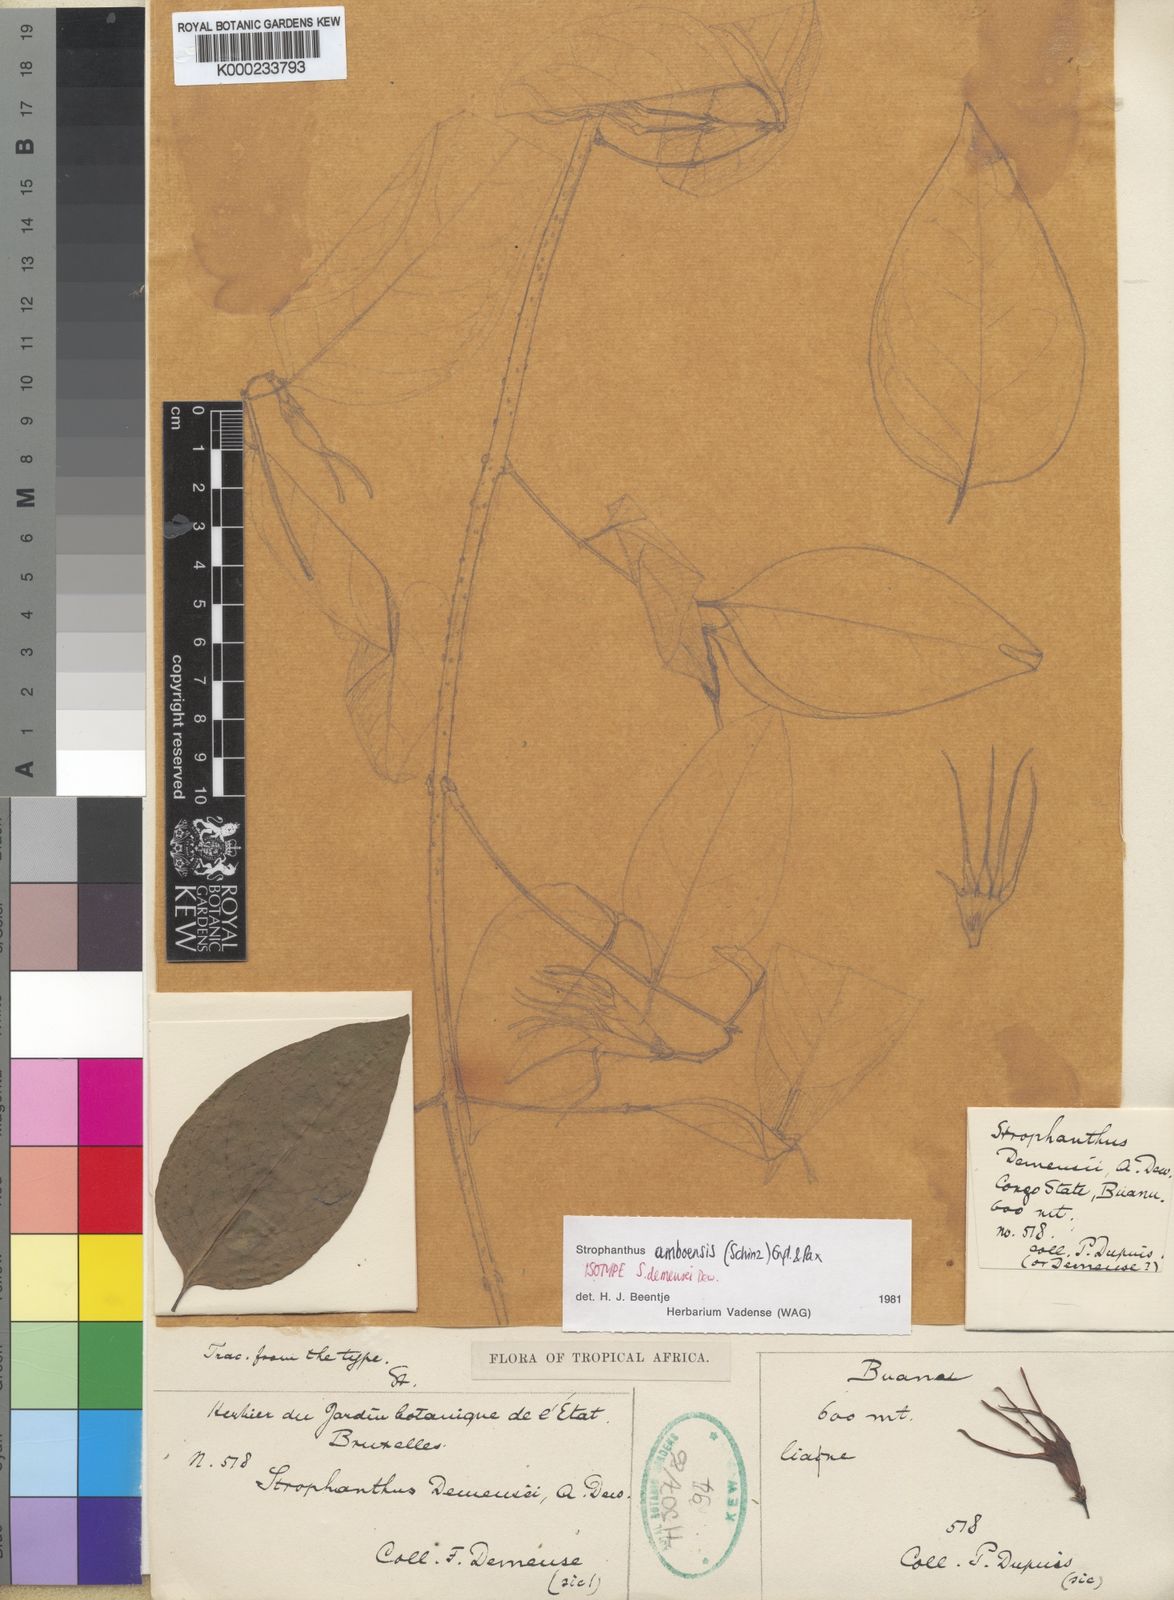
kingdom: Plantae
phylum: Tracheophyta
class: Magnoliopsida
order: Gentianales
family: Apocynaceae
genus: Strophanthus
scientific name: Strophanthus amboensis
